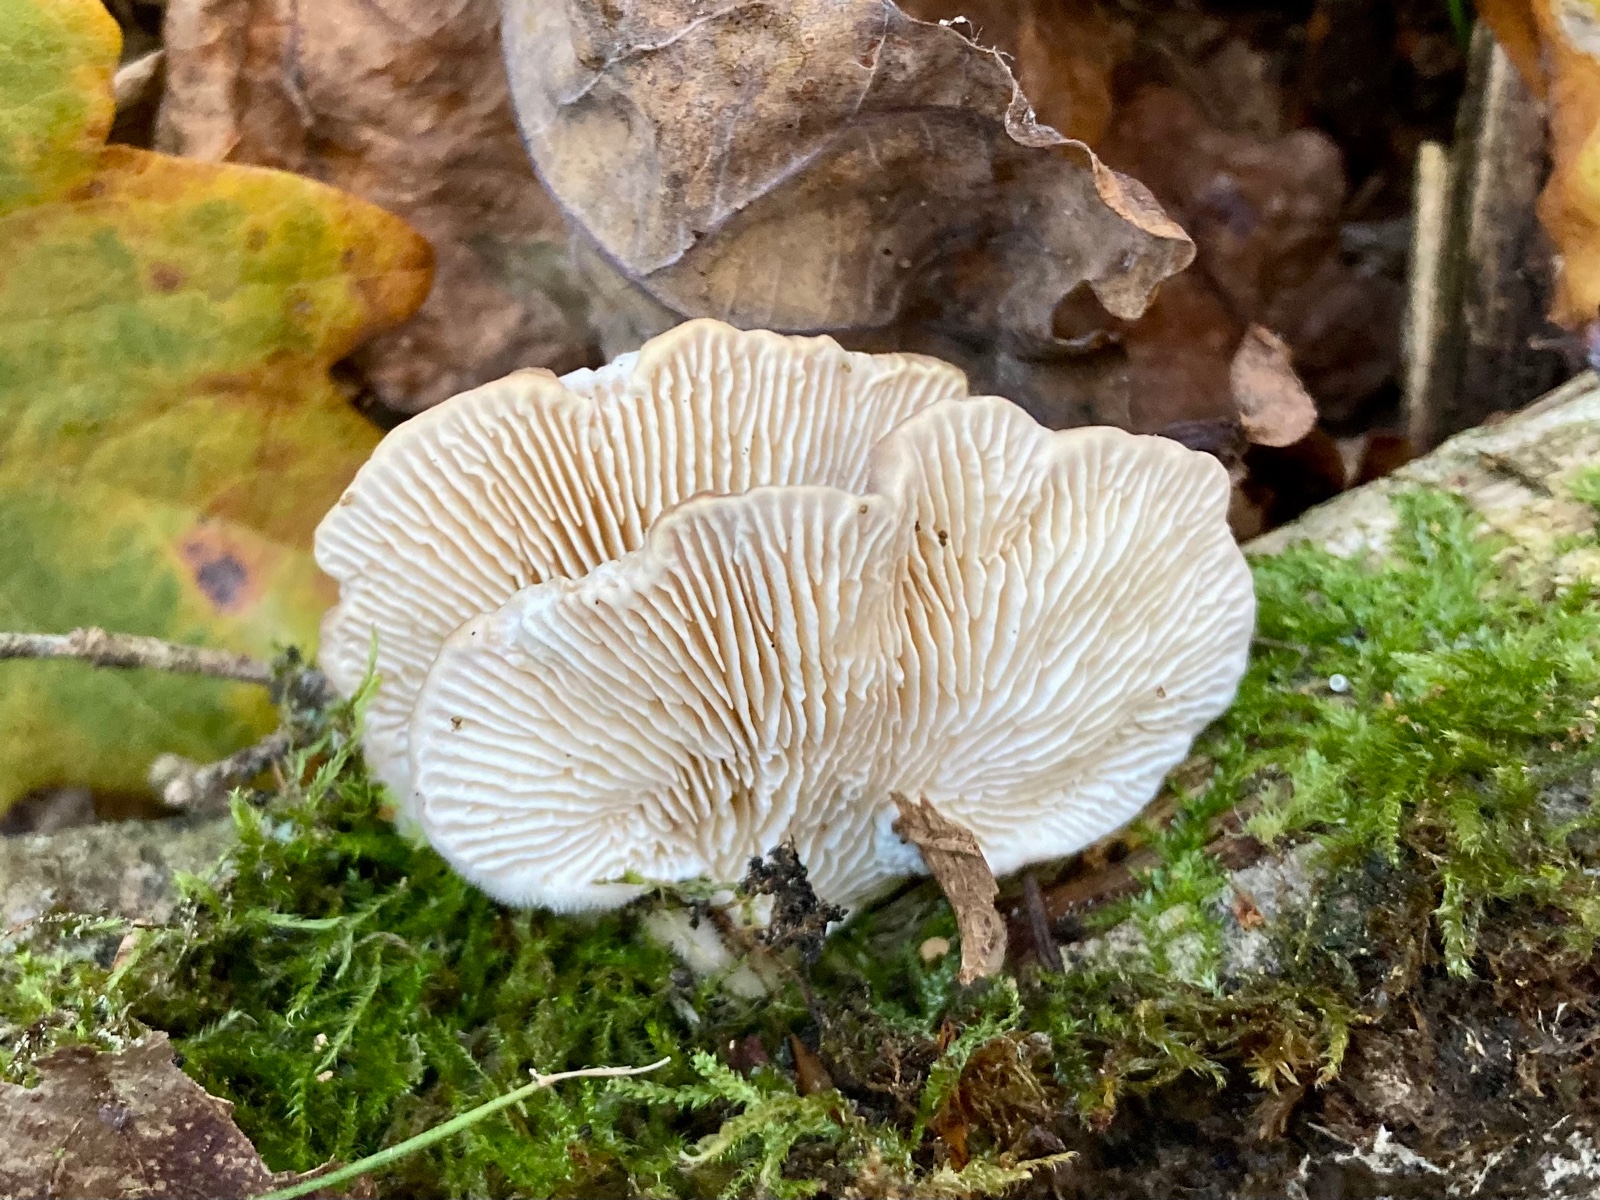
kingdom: Fungi
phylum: Basidiomycota
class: Agaricomycetes
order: Polyporales
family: Polyporaceae
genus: Lenzites
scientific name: Lenzites betulinus
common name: birke-læderporesvamp
